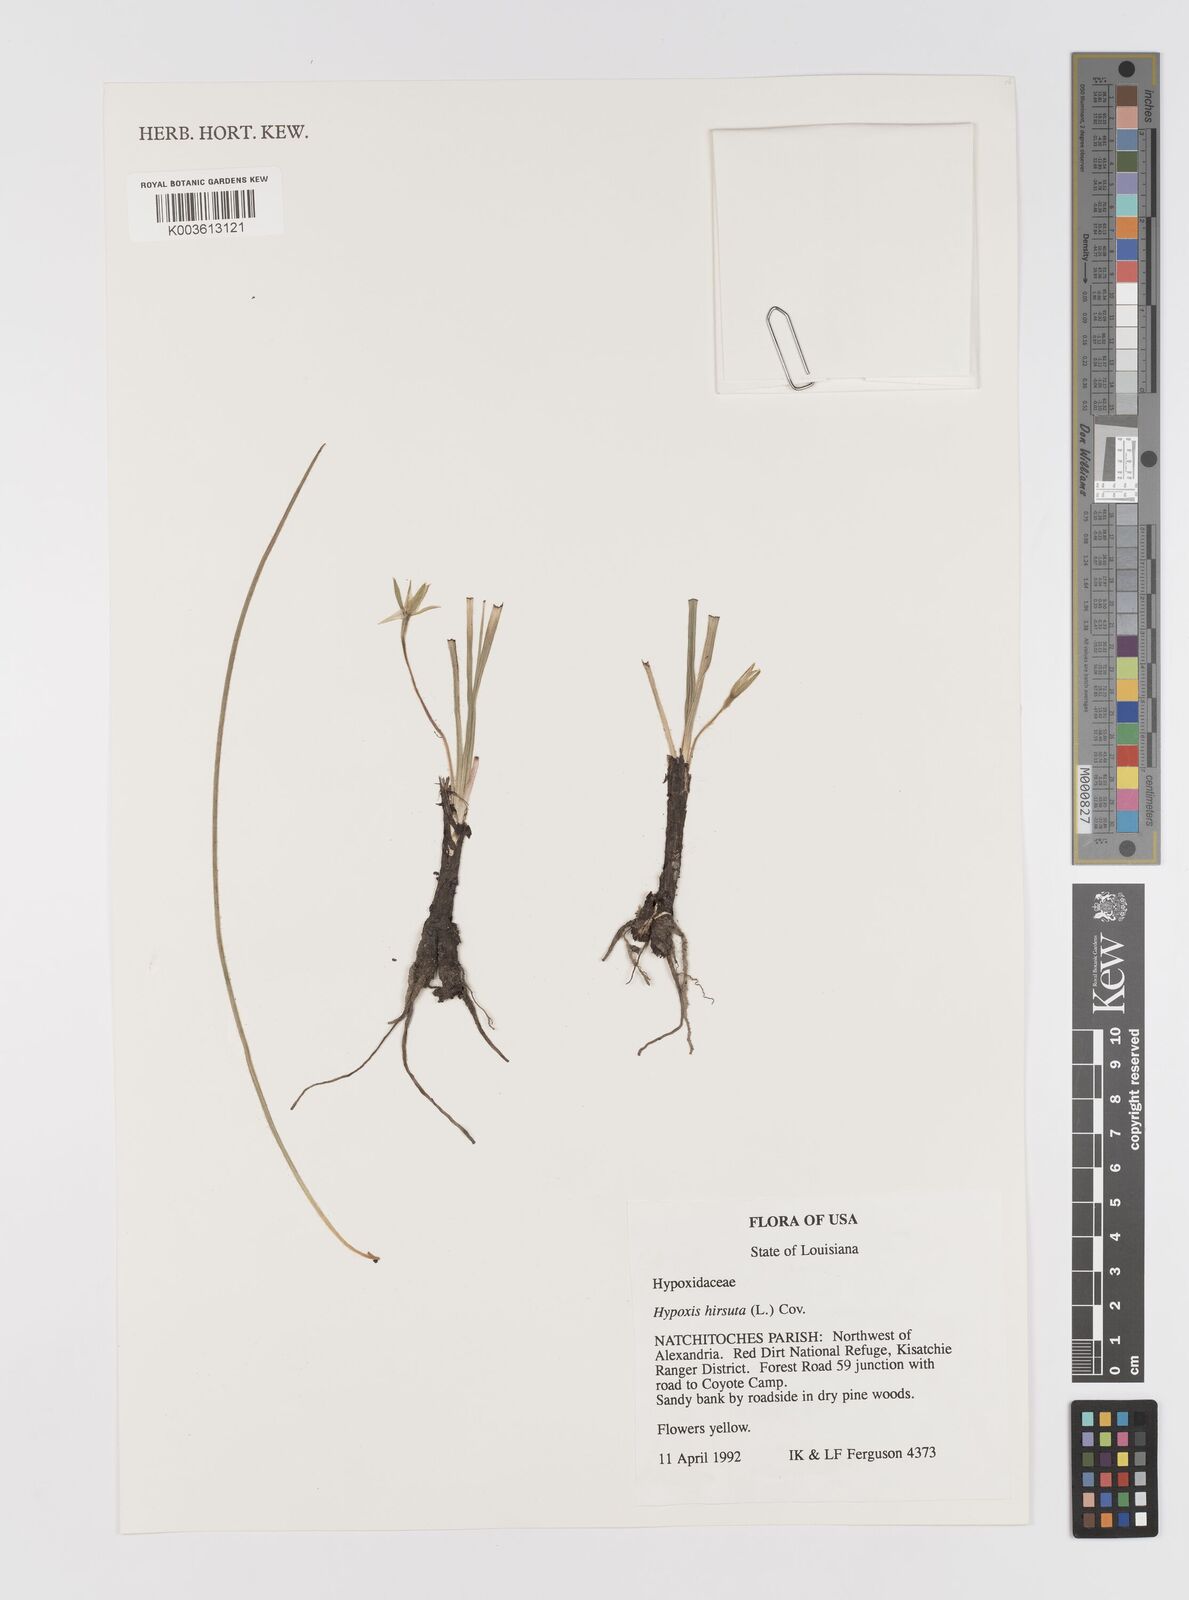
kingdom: Plantae
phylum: Tracheophyta
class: Liliopsida
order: Asparagales
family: Hypoxidaceae
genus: Hypoxis
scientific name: Hypoxis hirsuta
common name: Common goldstar
